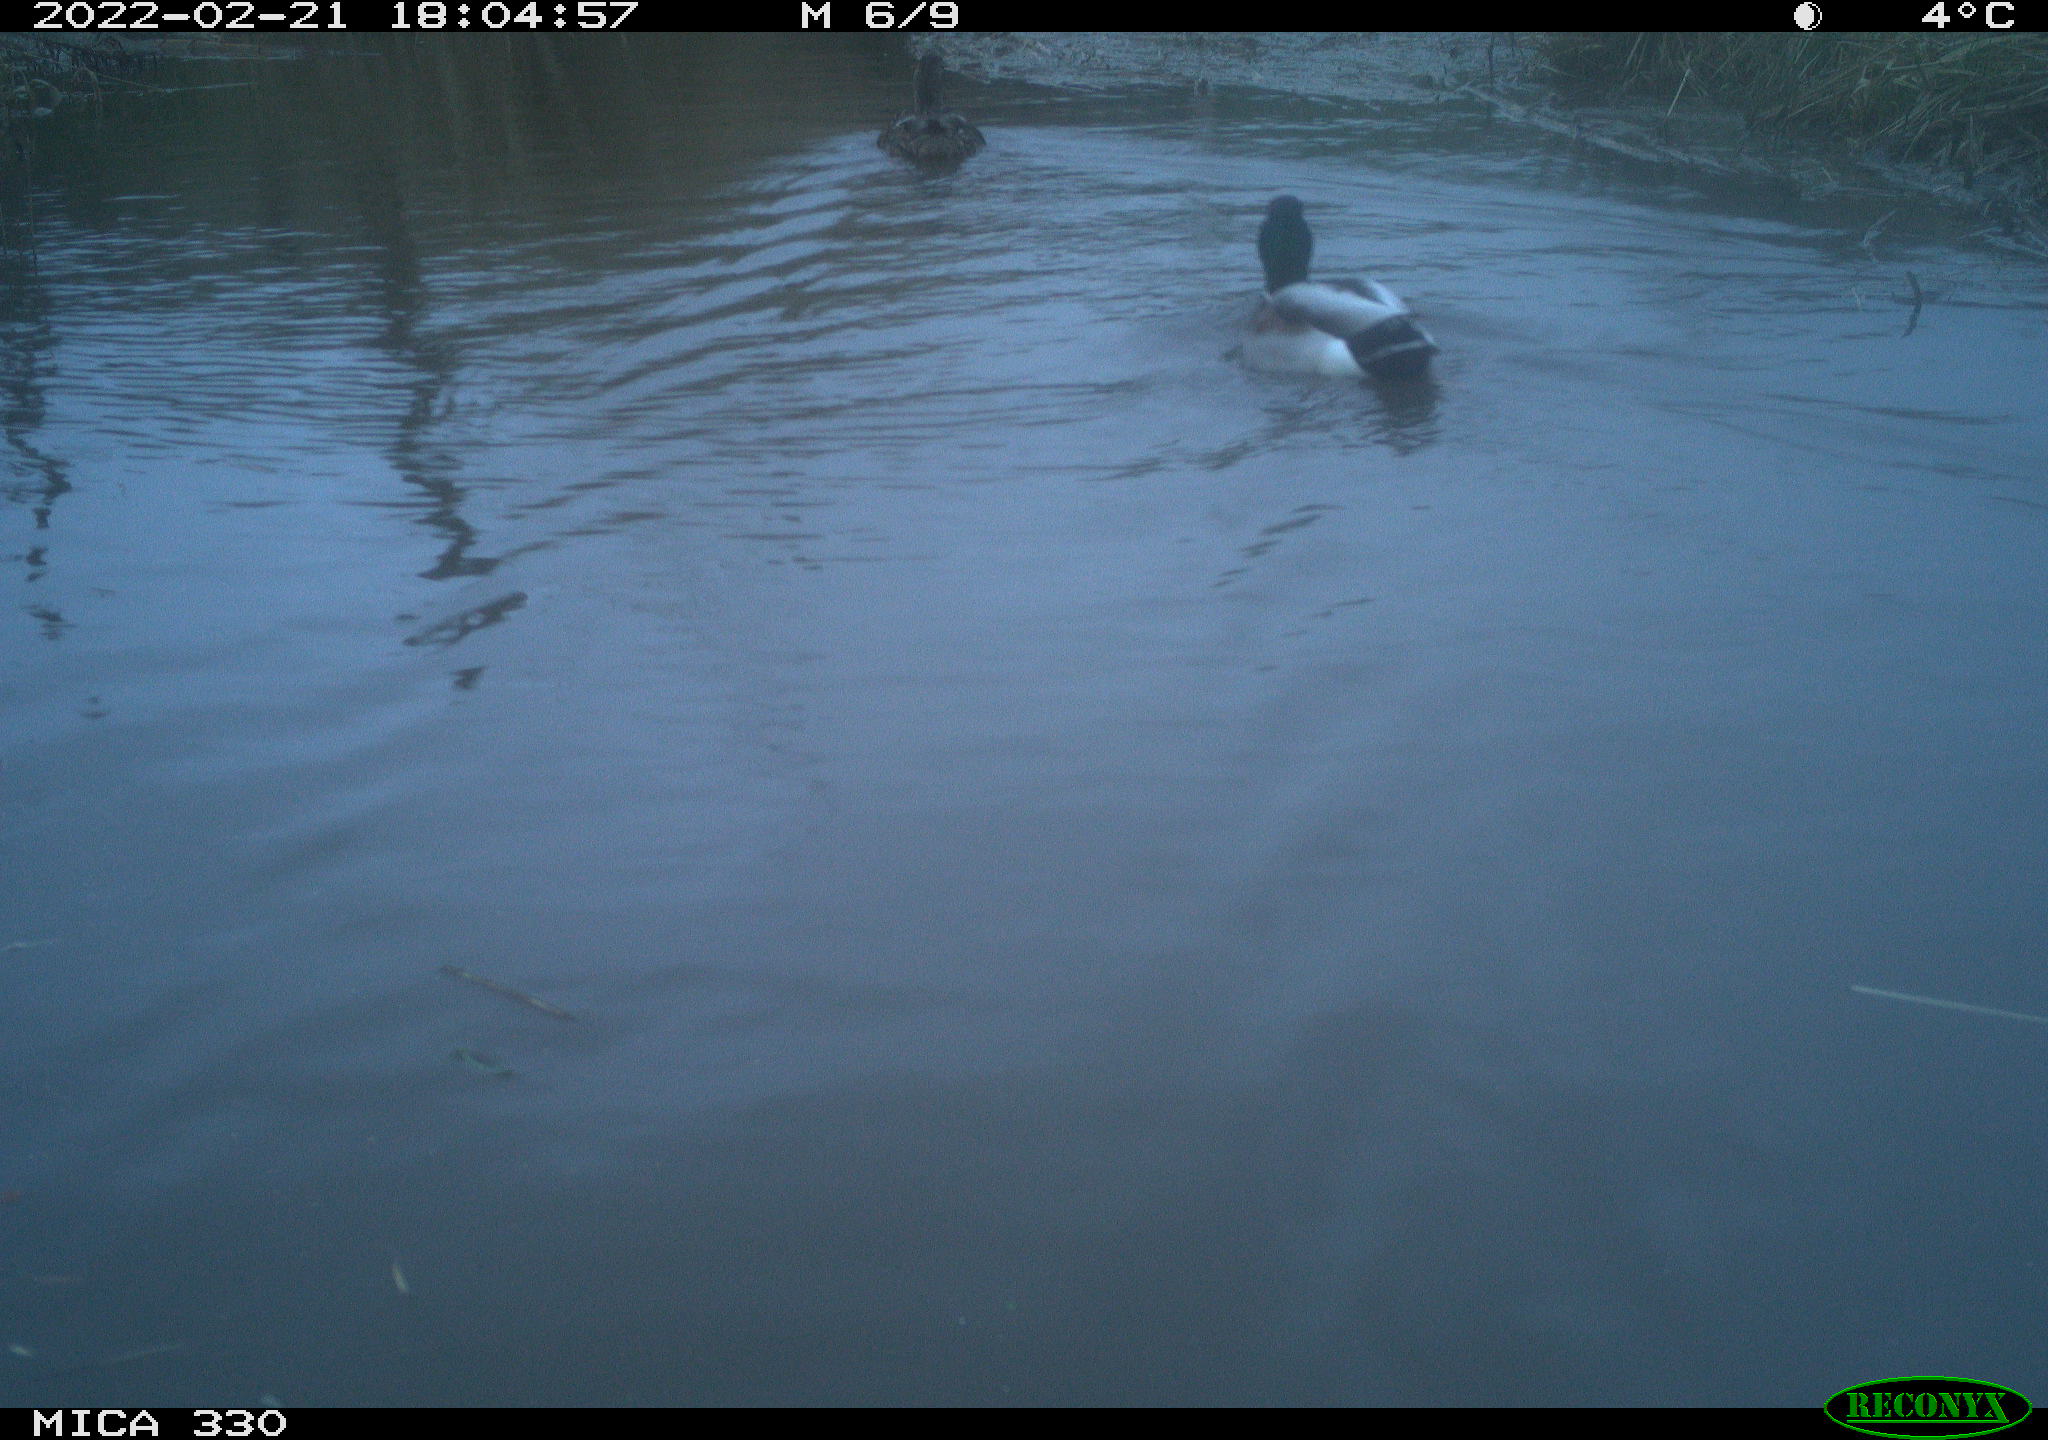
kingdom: Animalia
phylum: Chordata
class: Aves
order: Anseriformes
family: Anatidae
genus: Anas
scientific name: Anas platyrhynchos
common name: Mallard
